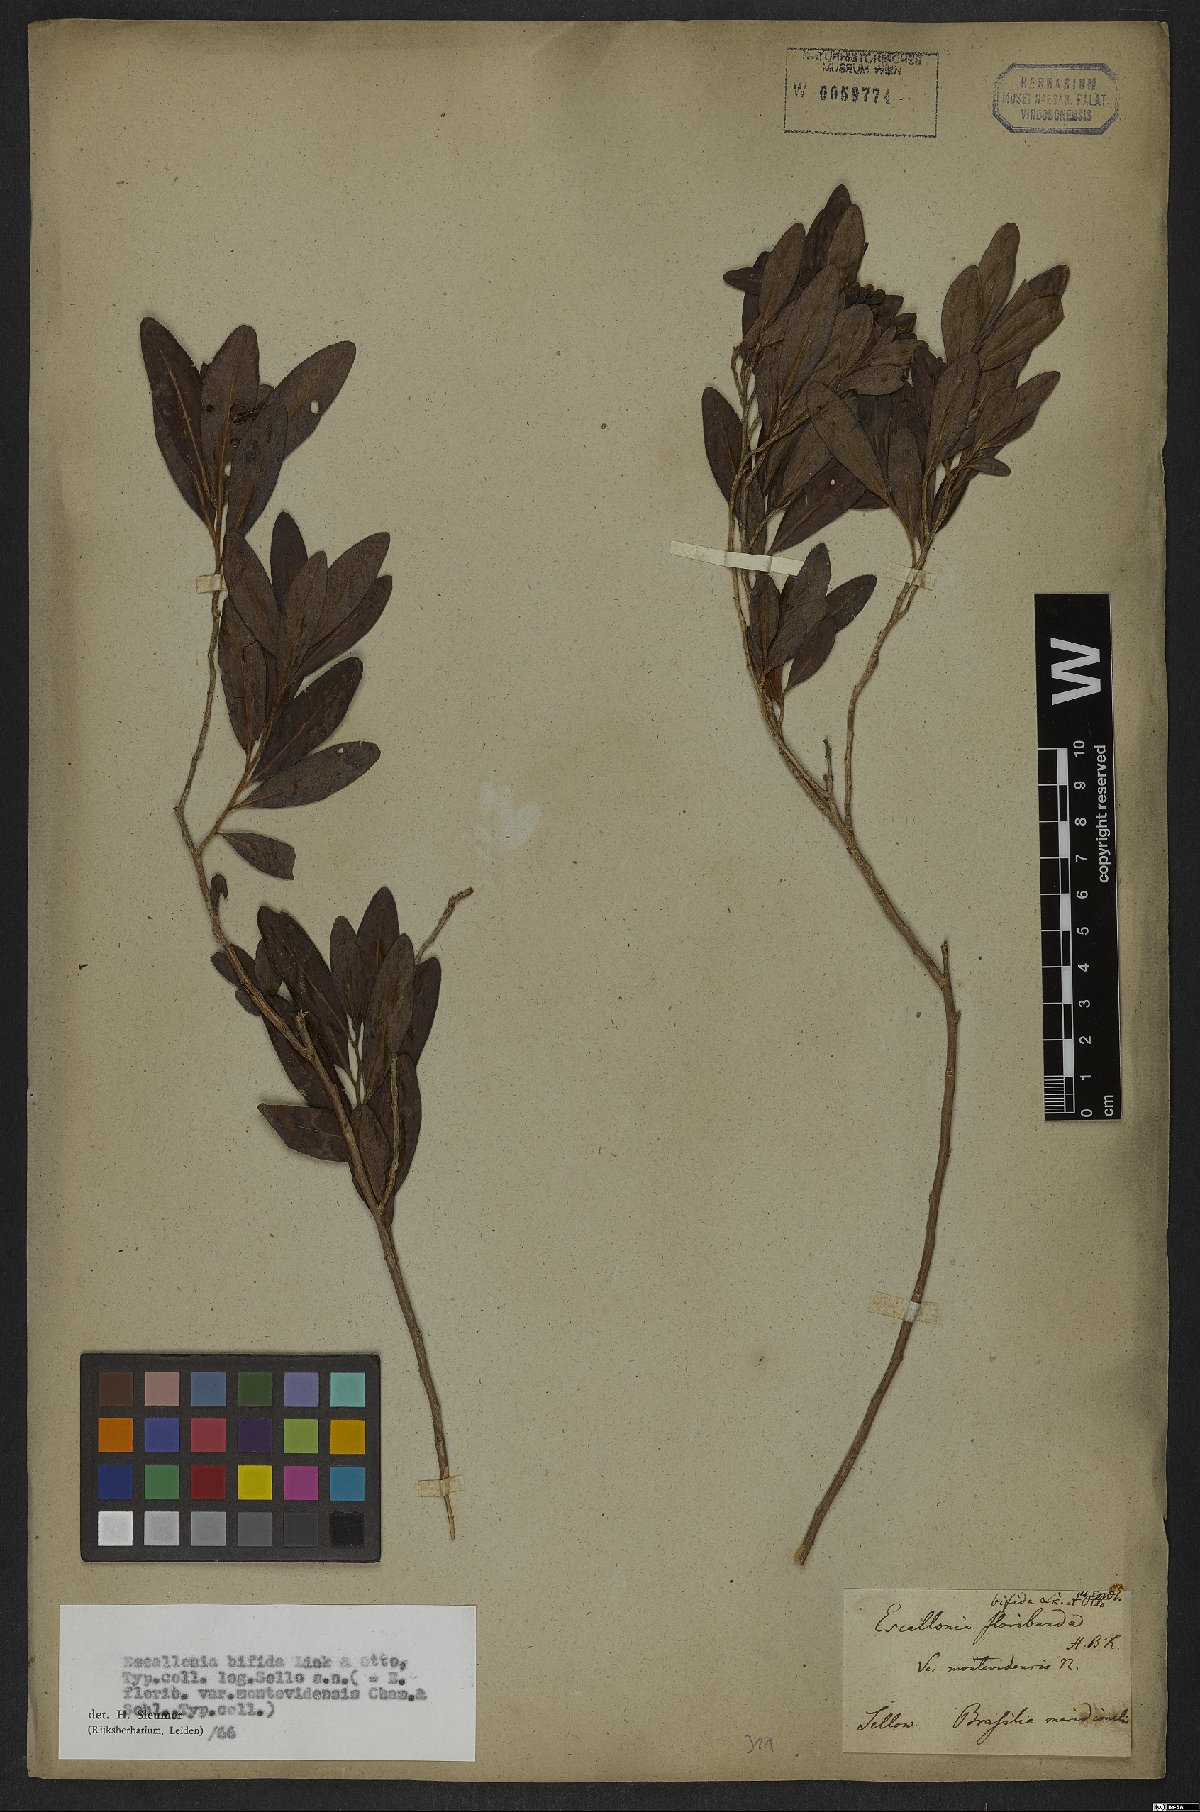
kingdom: Plantae
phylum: Tracheophyta
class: Magnoliopsida
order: Escalloniales
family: Escalloniaceae
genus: Escallonia
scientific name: Escallonia bifida
